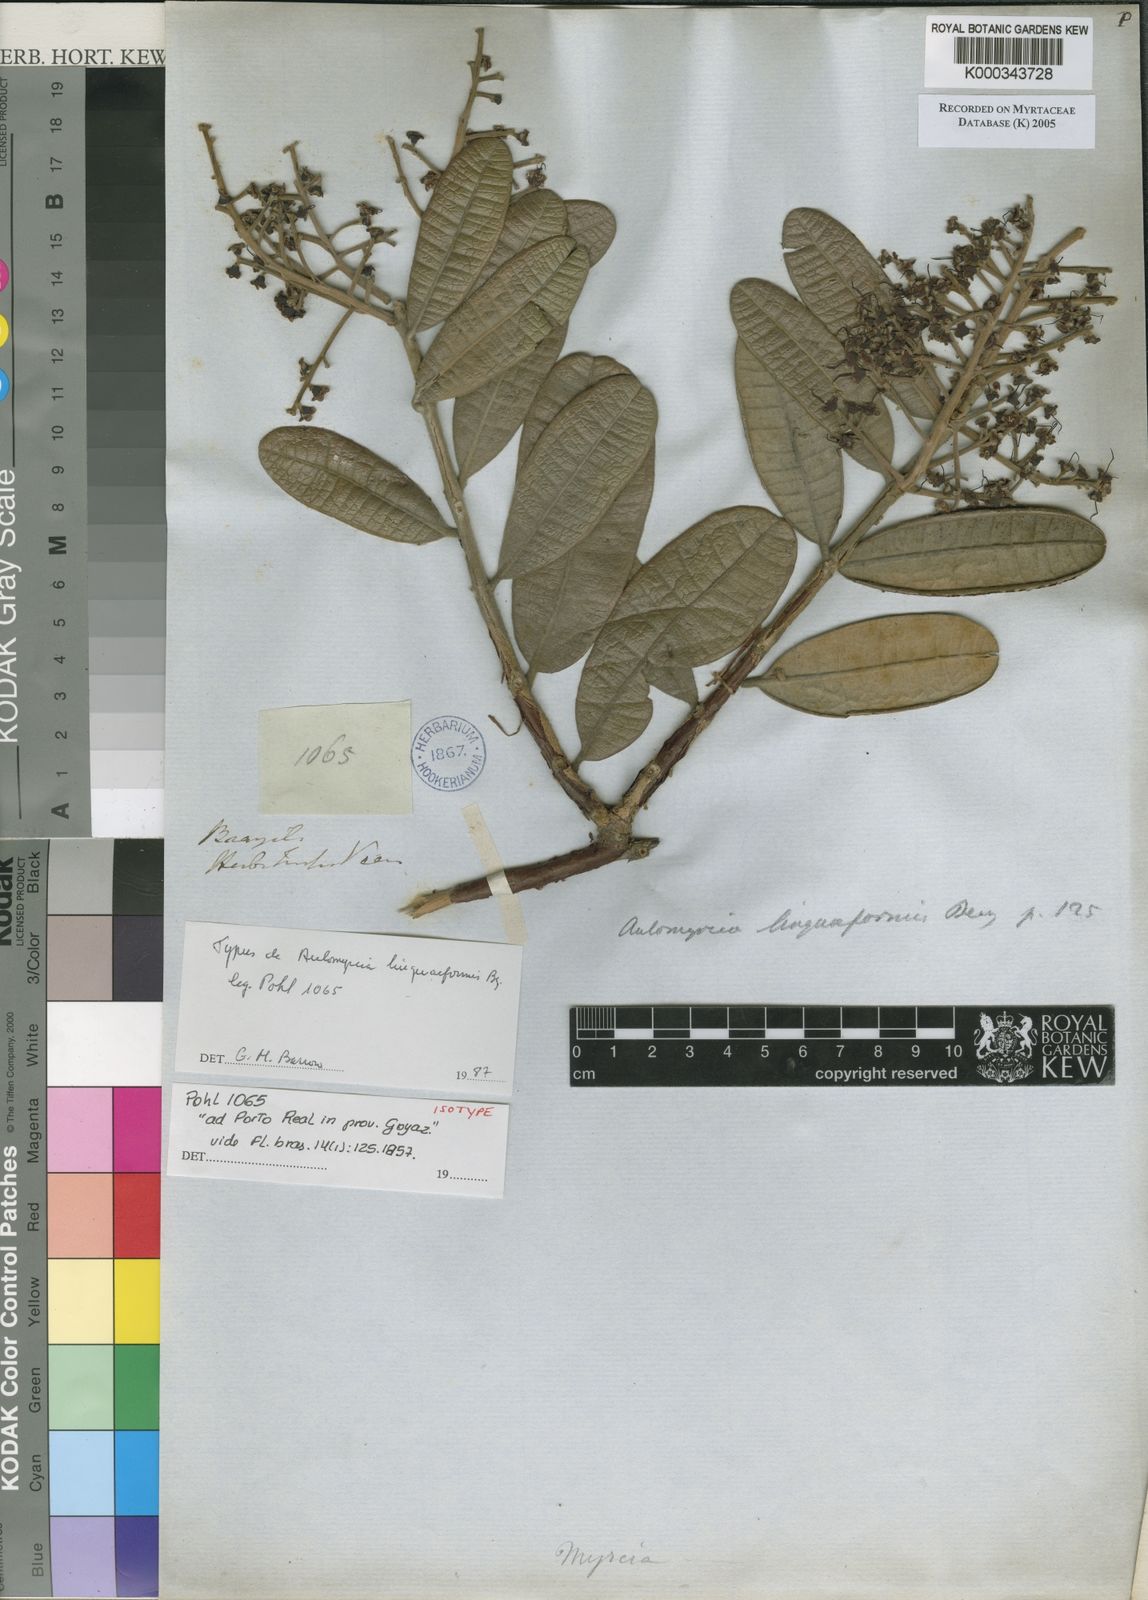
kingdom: Plantae
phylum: Tracheophyta
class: Magnoliopsida
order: Myrtales
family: Myrtaceae
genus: Myrcia
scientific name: Myrcia vestita
